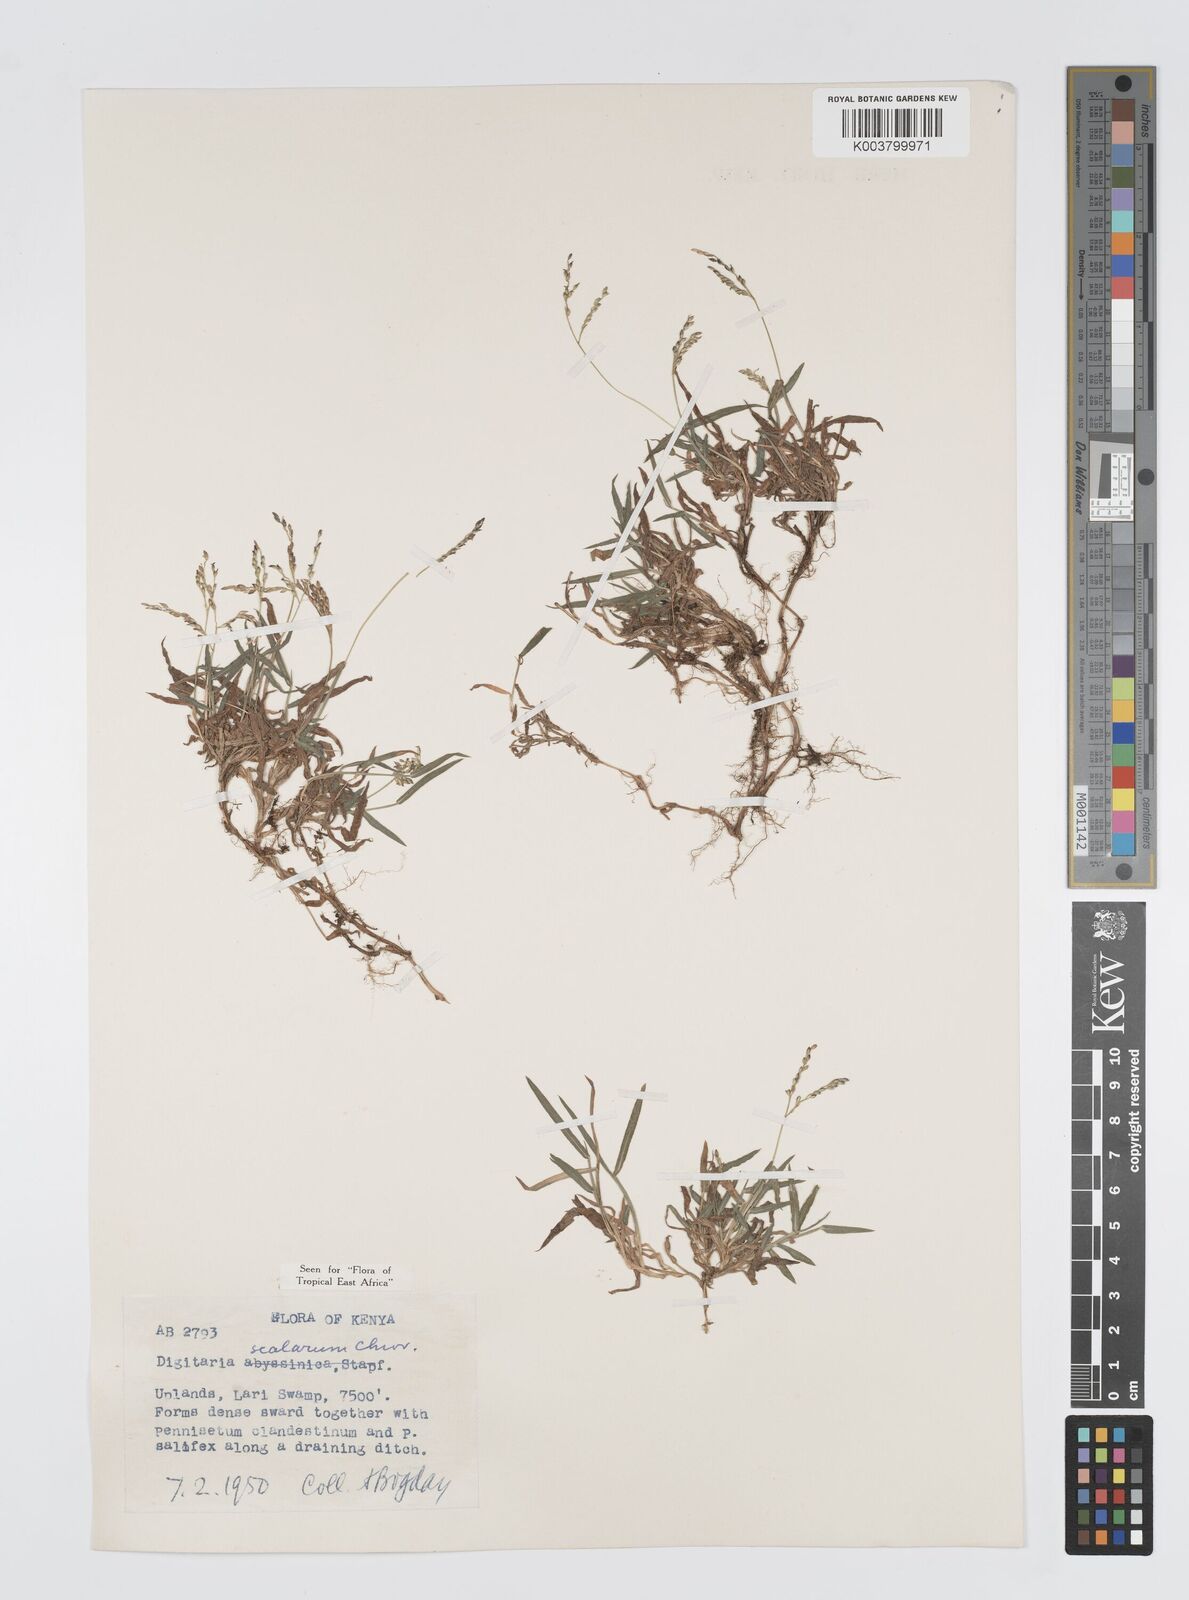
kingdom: Plantae
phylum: Tracheophyta
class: Liliopsida
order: Poales
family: Poaceae
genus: Digitaria
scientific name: Digitaria abyssinica
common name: African couchgrass
